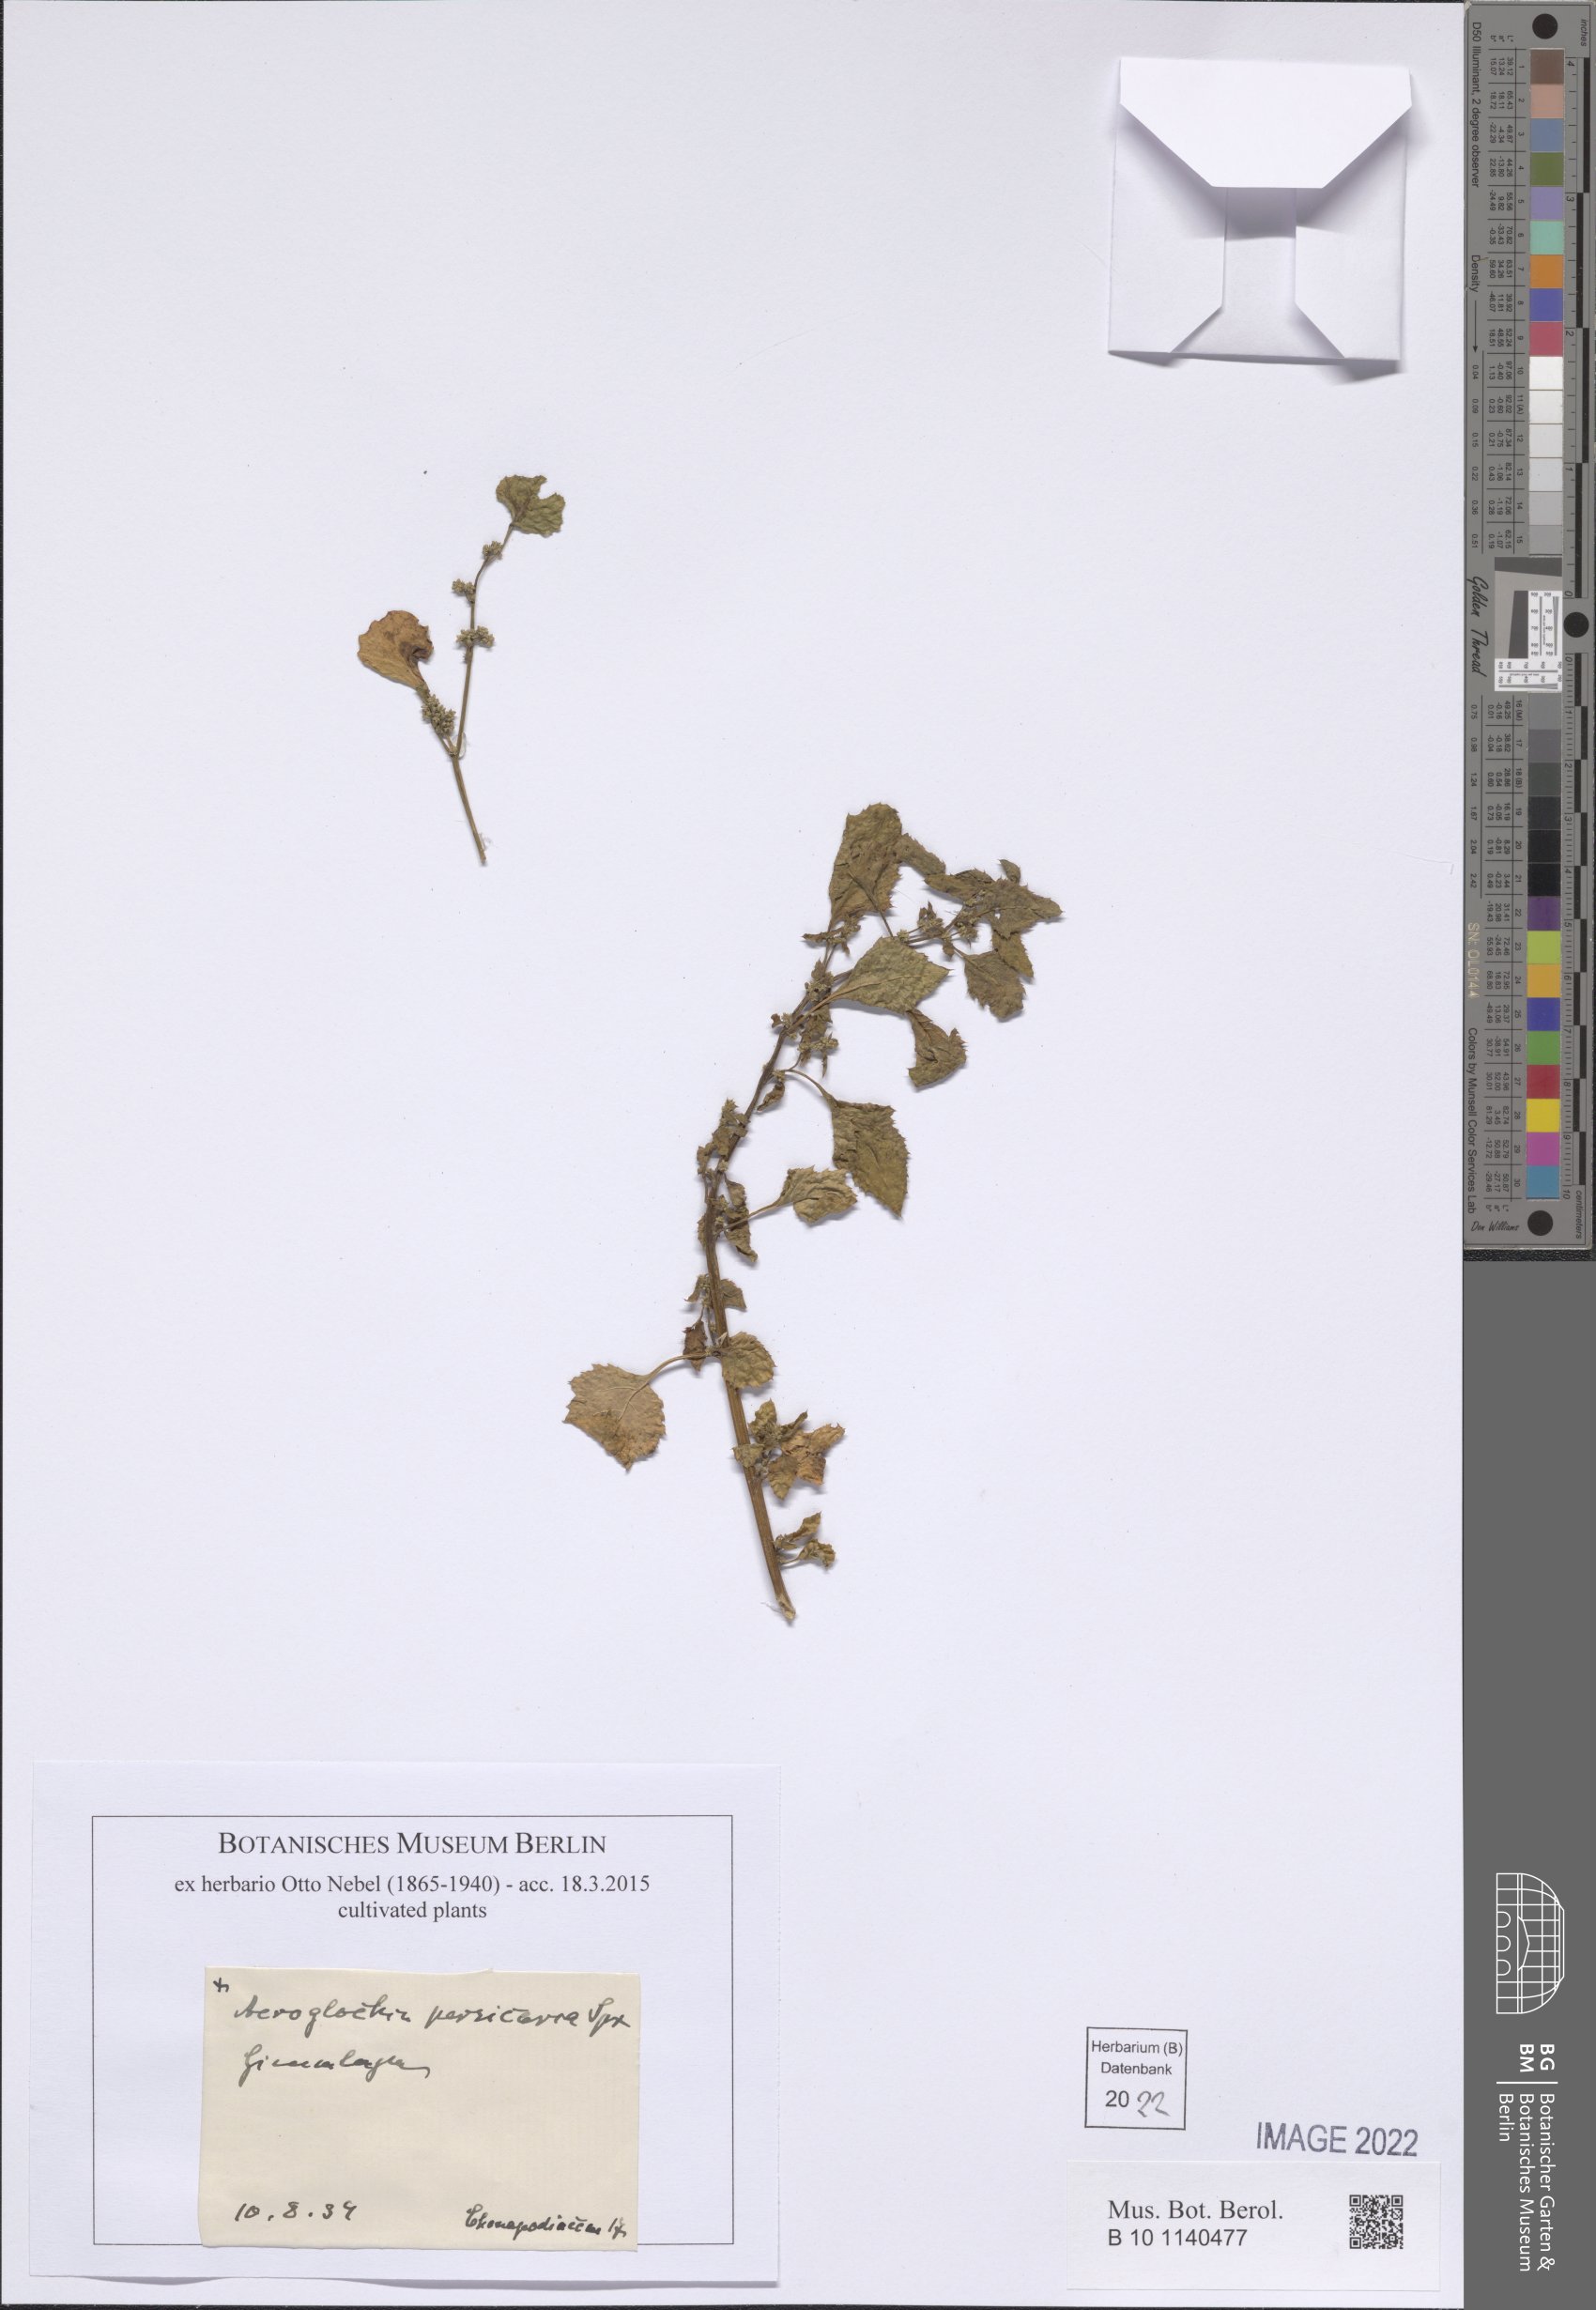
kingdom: Plantae
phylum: Tracheophyta
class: Magnoliopsida
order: Caryophyllales
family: Amaranthaceae
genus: Acroglochin
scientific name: Acroglochin persicarioides
